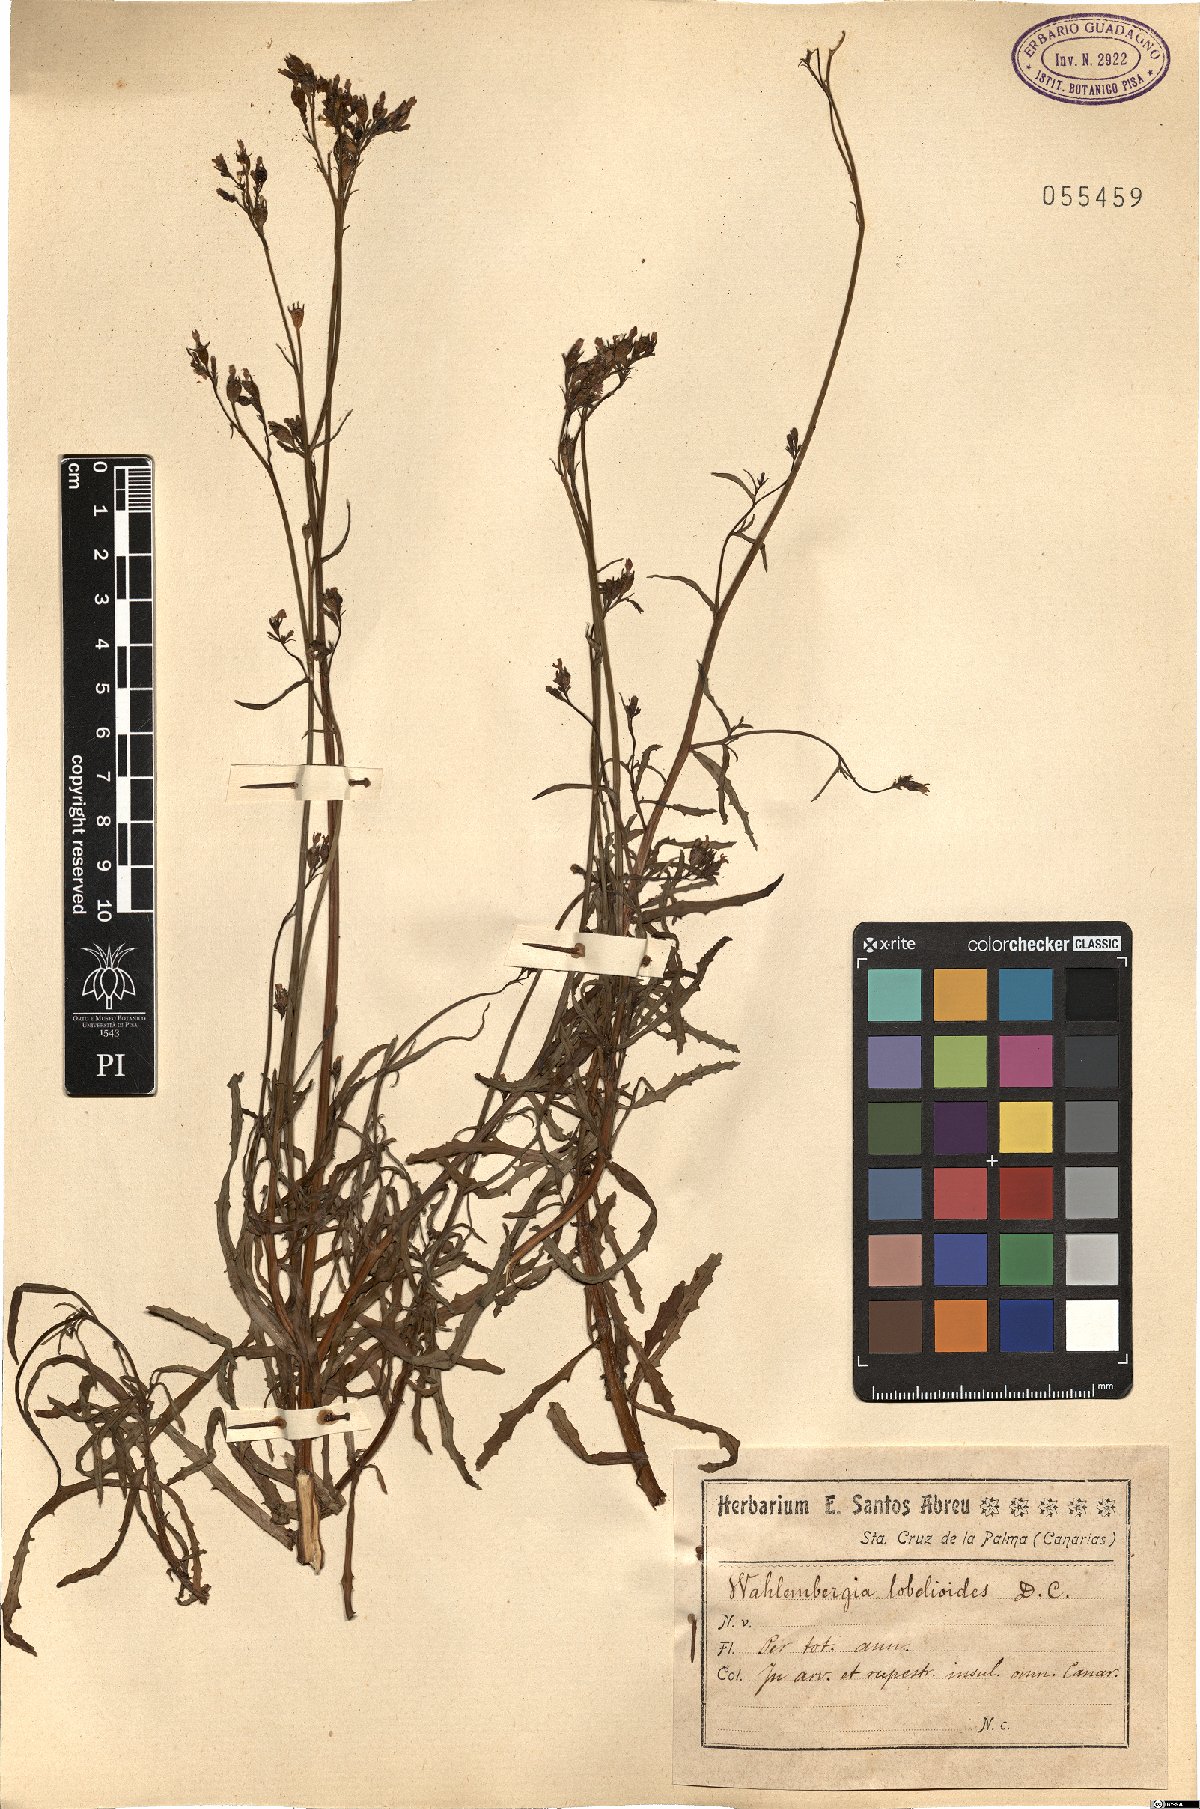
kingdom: Plantae
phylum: Tracheophyta
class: Magnoliopsida
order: Asterales
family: Campanulaceae
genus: Wahlenbergia
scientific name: Wahlenbergia lobelioides
